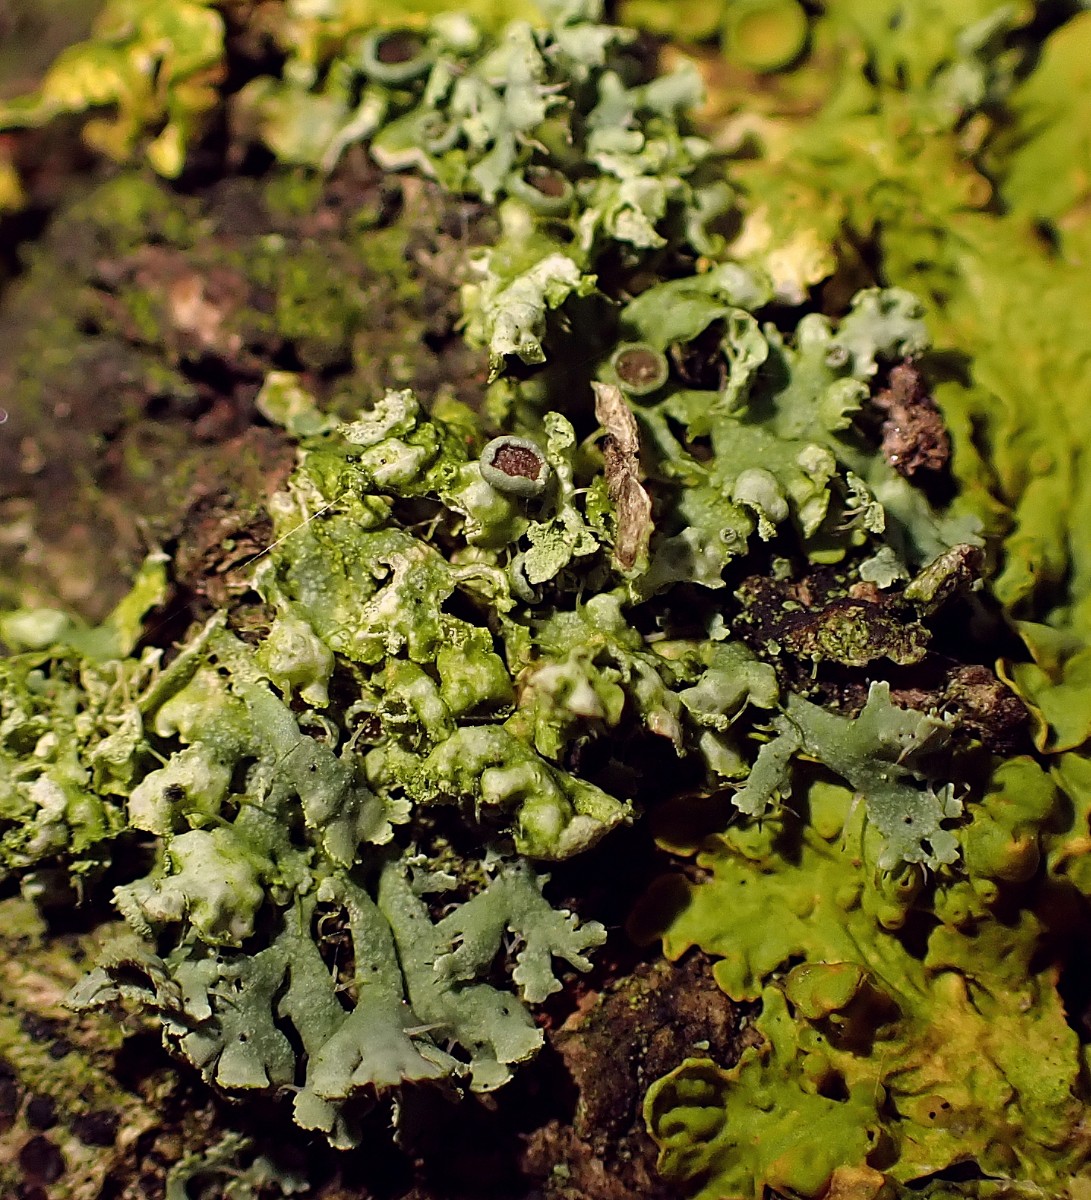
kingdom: Fungi
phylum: Ascomycota
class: Lecanoromycetes
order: Caliciales
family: Physciaceae
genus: Physcia
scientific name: Physcia
